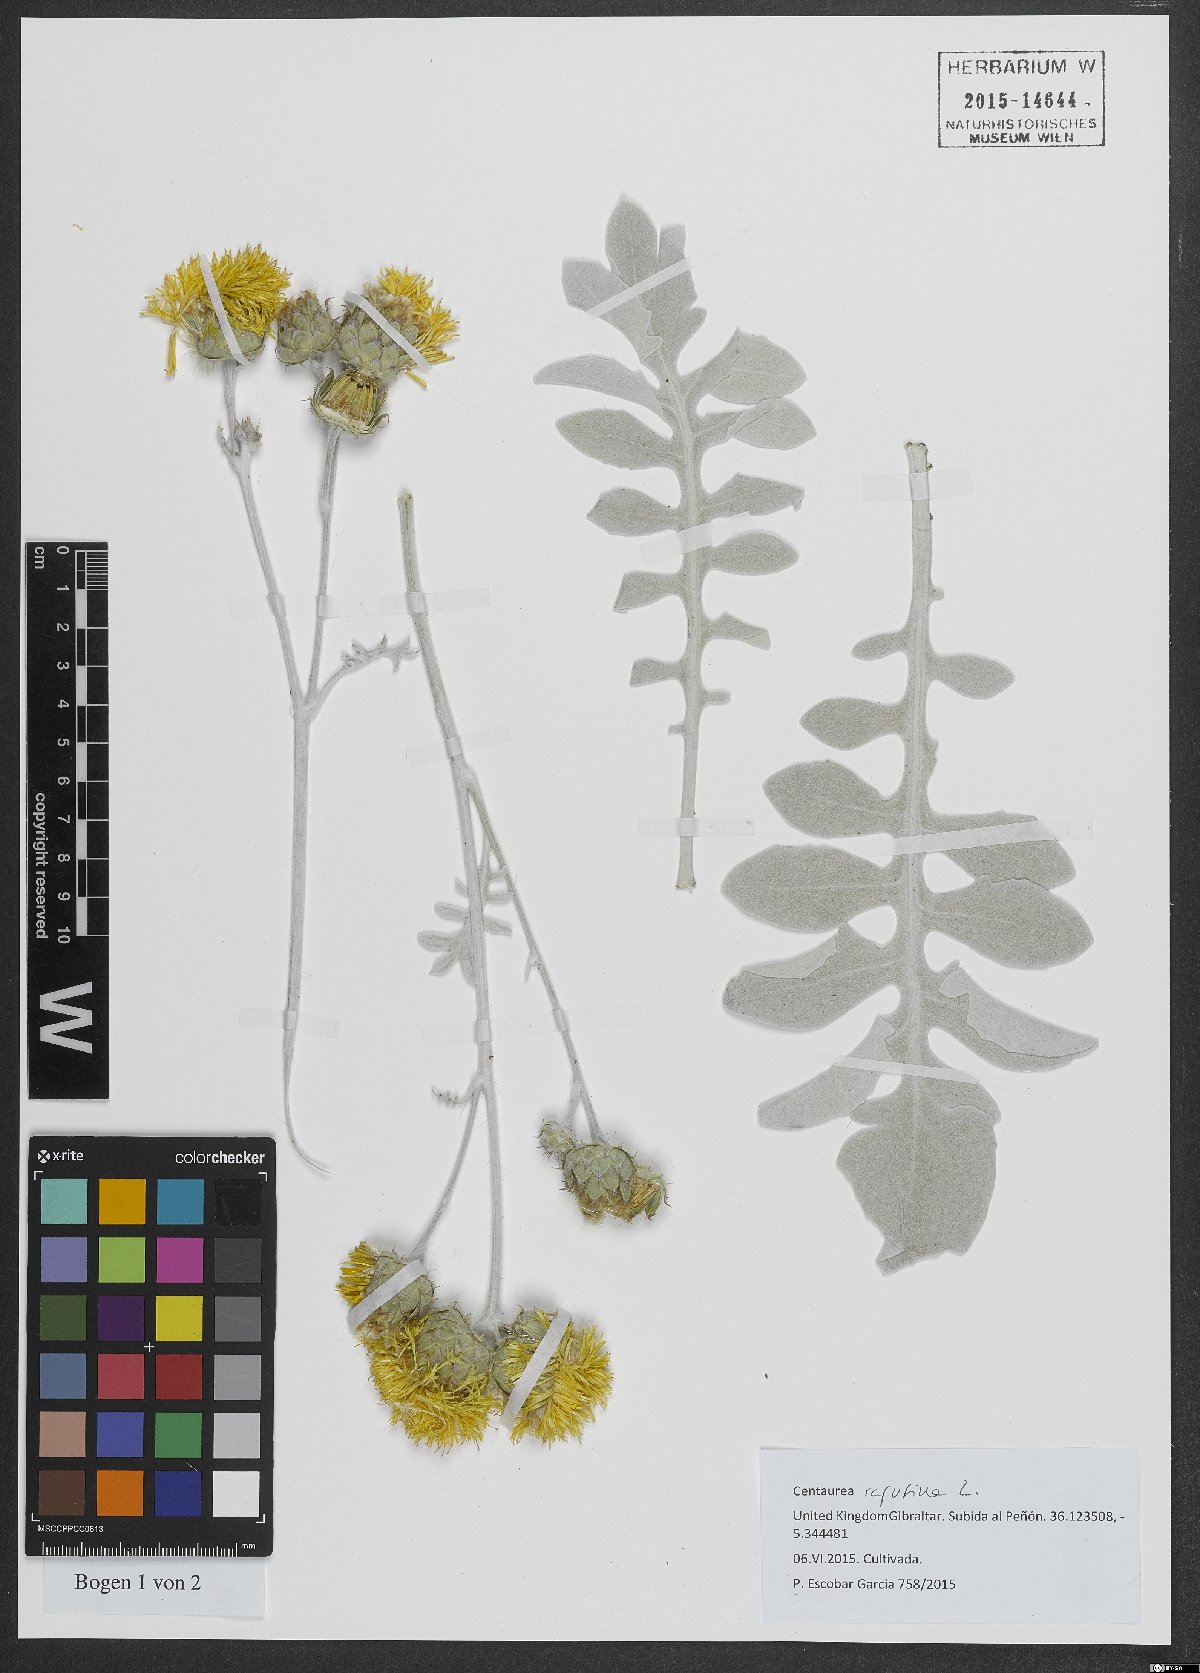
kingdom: Plantae
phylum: Tracheophyta
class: Magnoliopsida
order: Asterales
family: Asteraceae
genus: Centaurea
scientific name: Centaurea ragusina
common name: Dusty-miller
